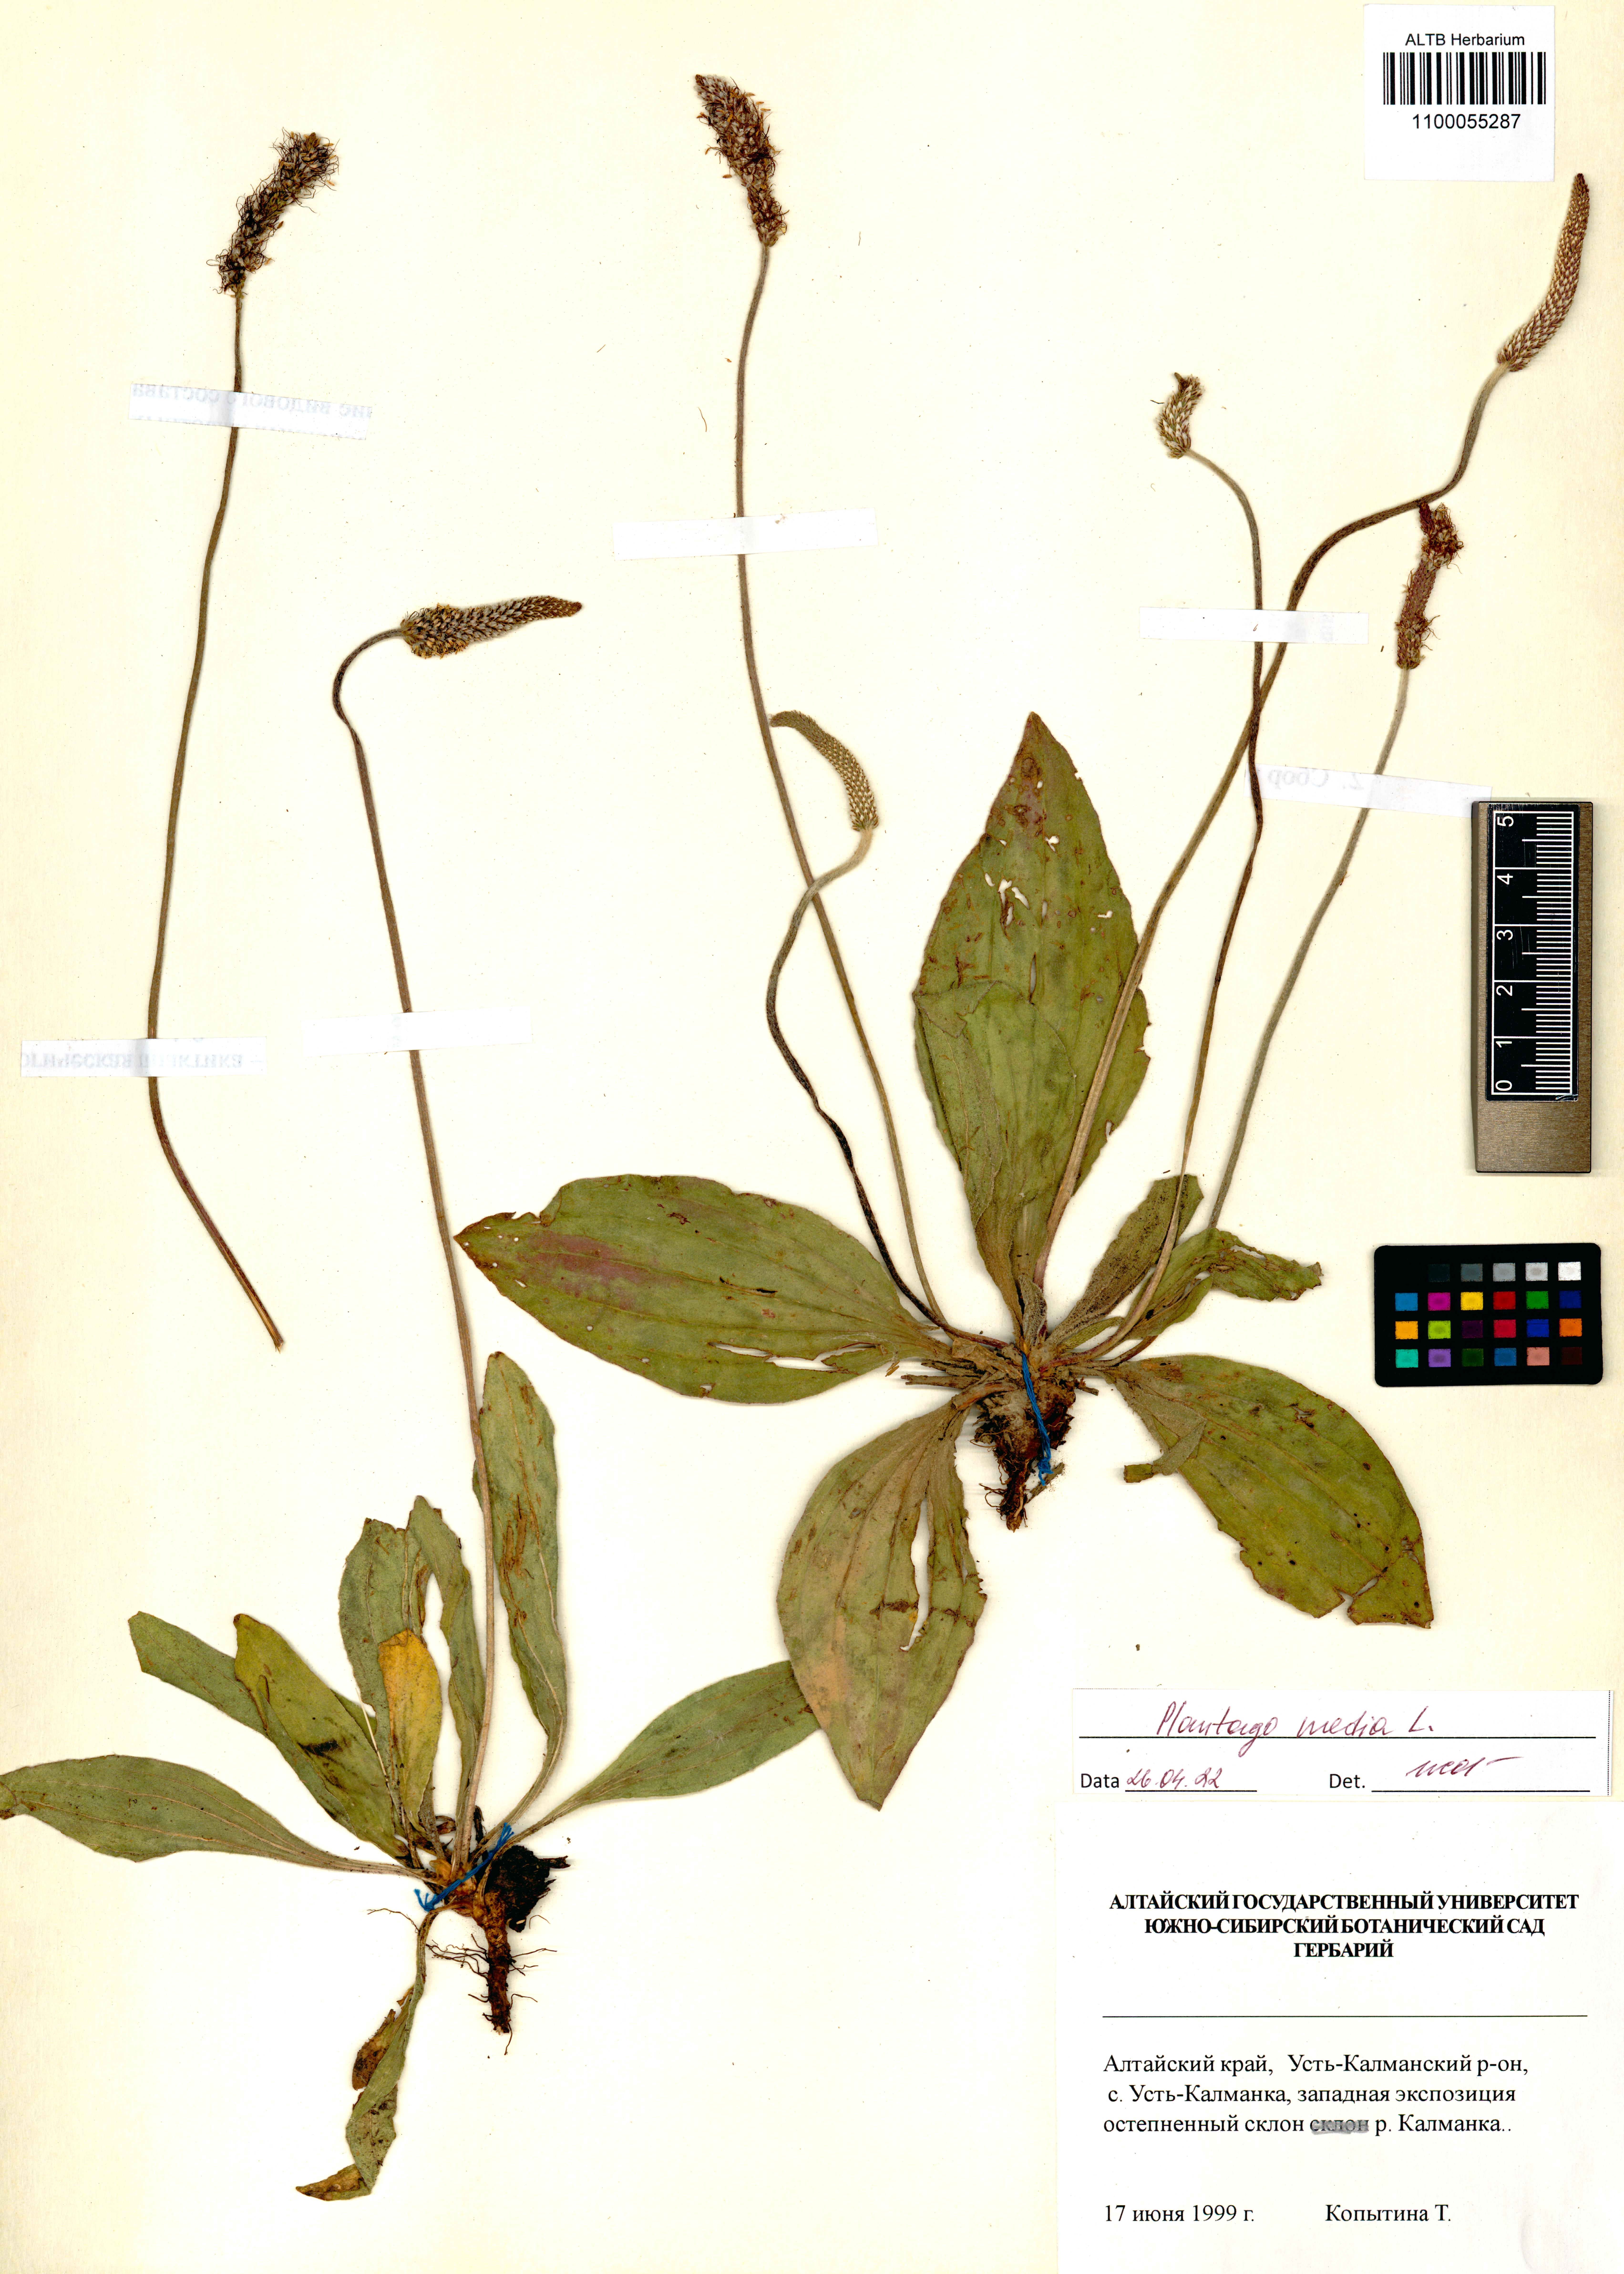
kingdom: Plantae
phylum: Tracheophyta
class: Magnoliopsida
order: Lamiales
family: Plantaginaceae
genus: Plantago
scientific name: Plantago media
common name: Hoary plantain
